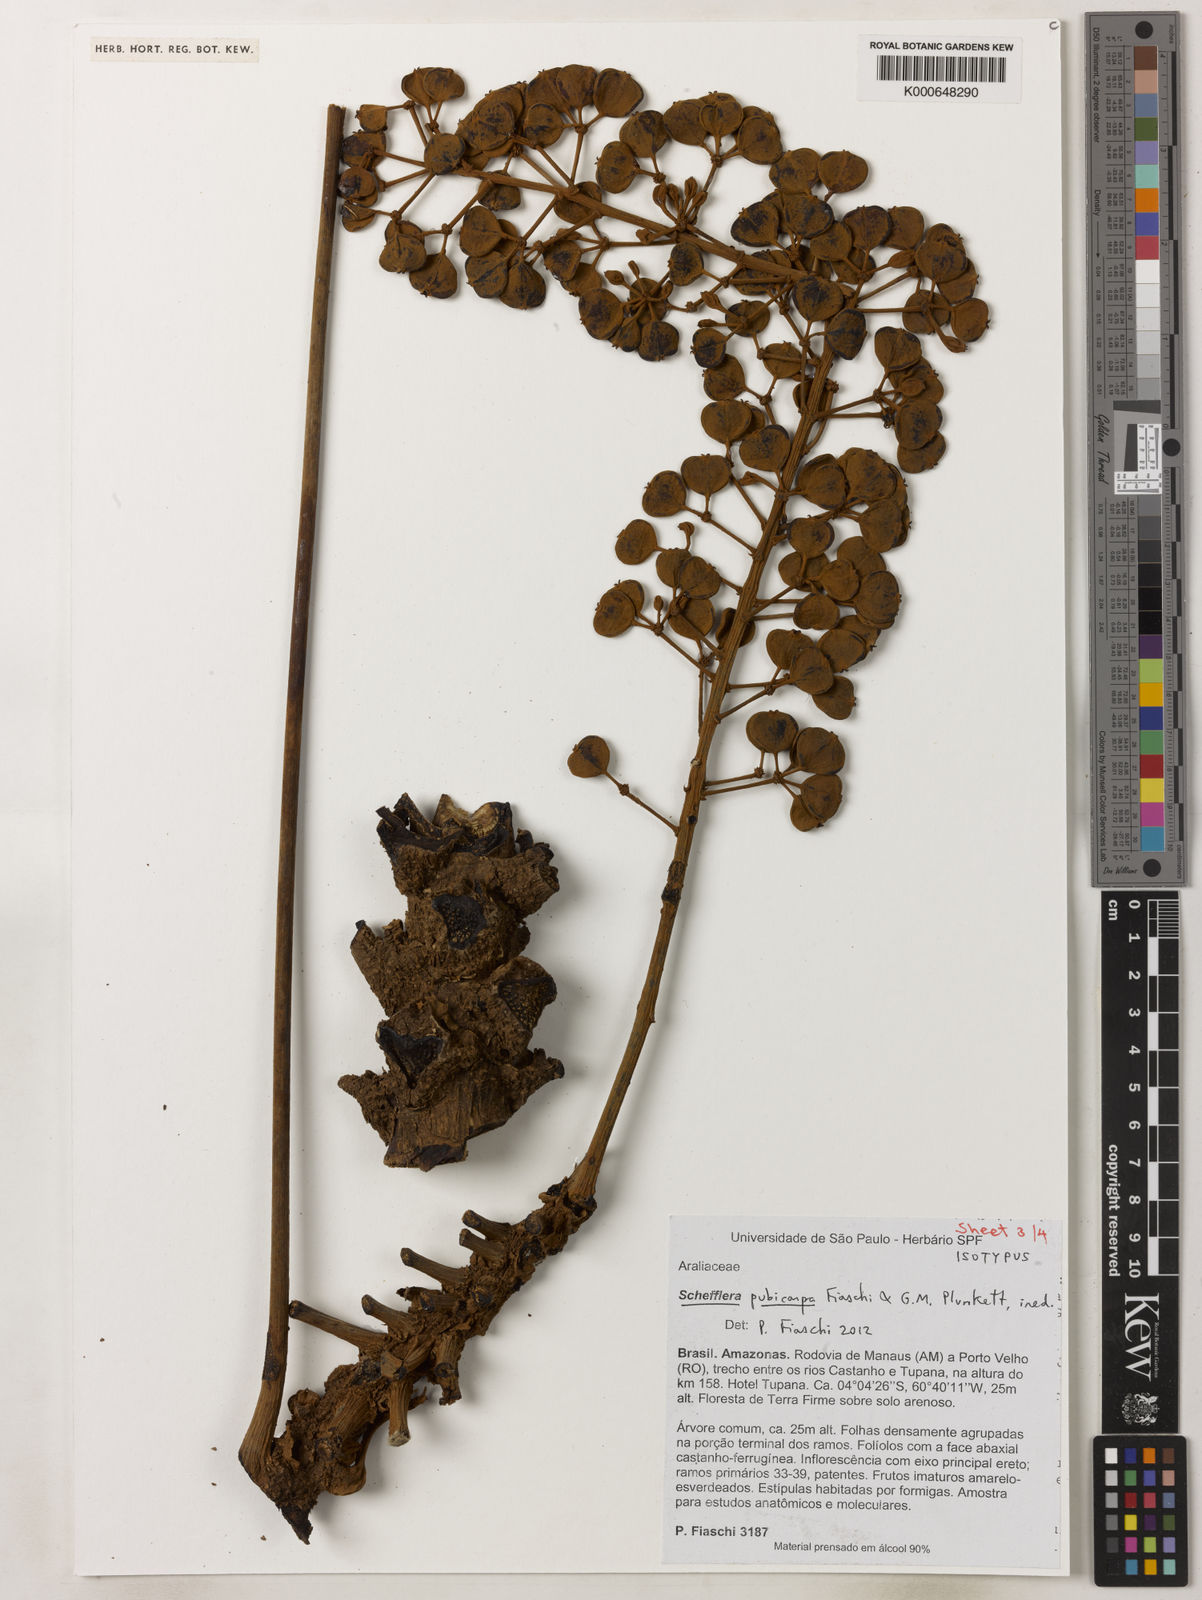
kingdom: Plantae
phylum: Tracheophyta
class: Magnoliopsida
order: Apiales
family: Araliaceae
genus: Didymopanax
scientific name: Didymopanax pubicarpus
